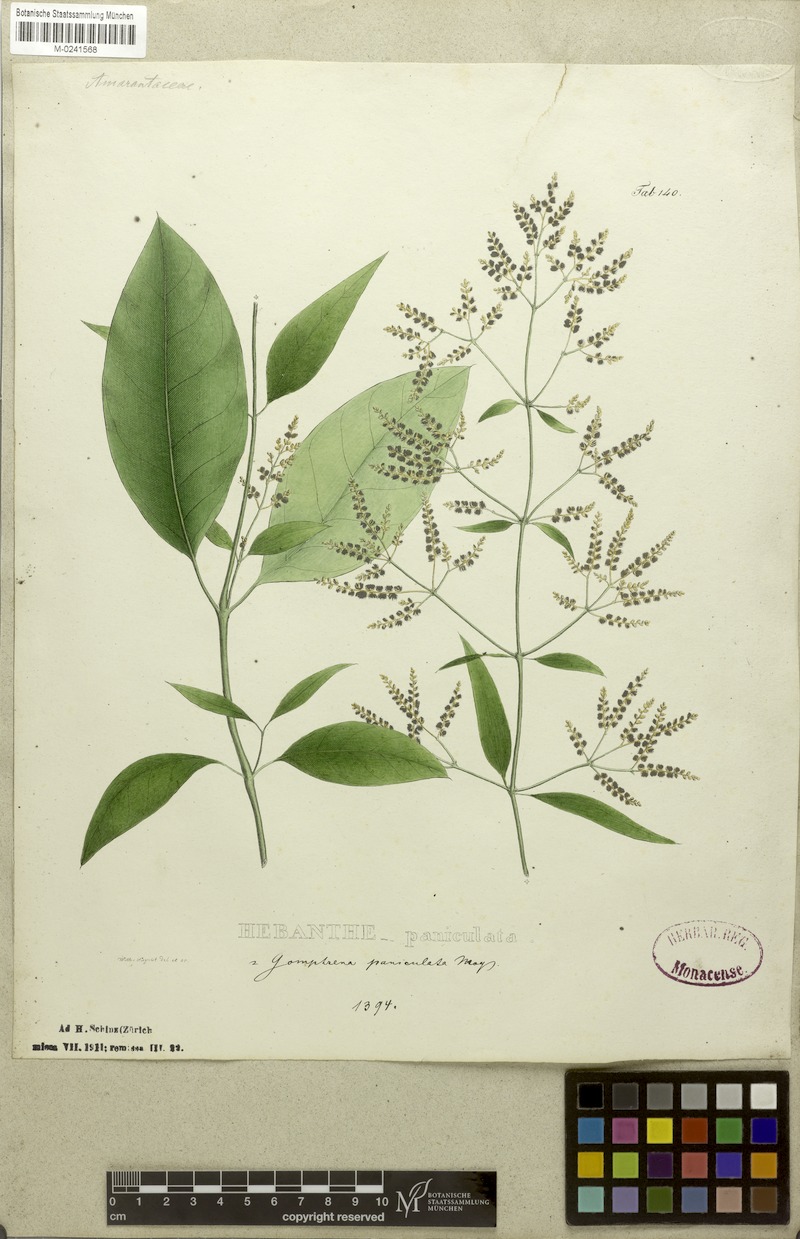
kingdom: Plantae
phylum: Tracheophyta
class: Magnoliopsida
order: Caryophyllales
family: Amaranthaceae
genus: Hebanthe
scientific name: Hebanthe erianthos
